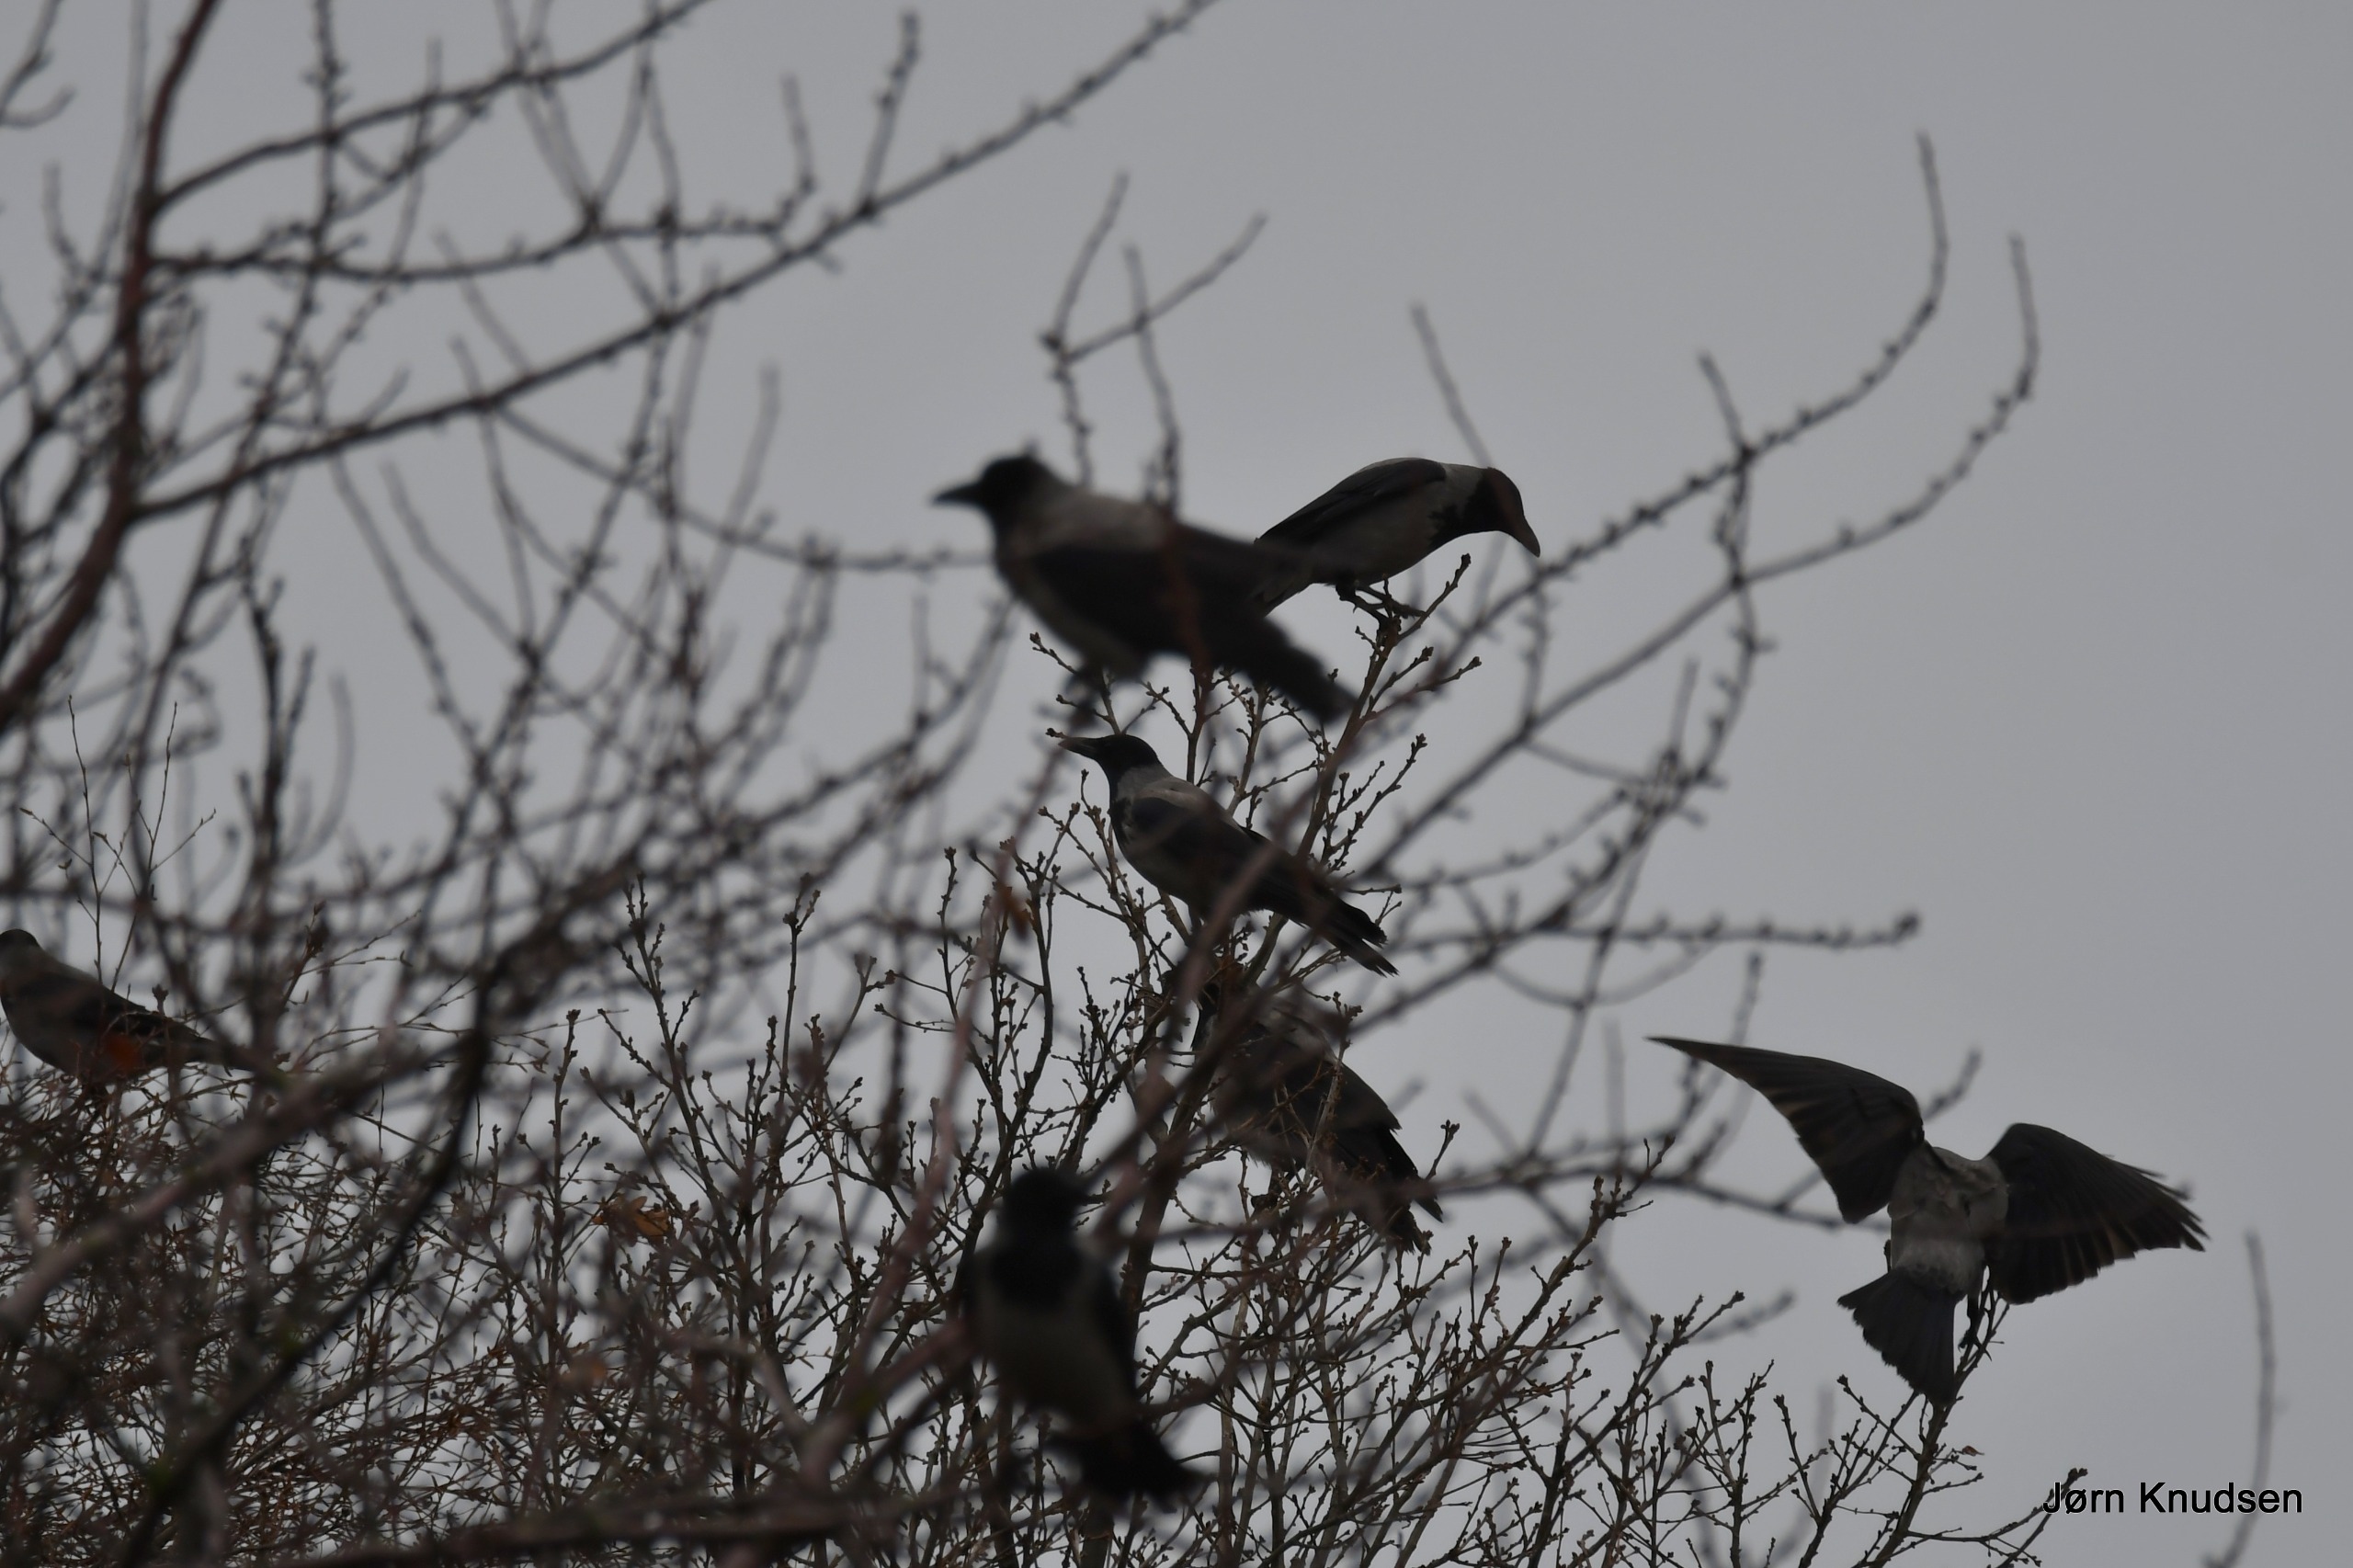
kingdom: Animalia
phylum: Chordata
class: Aves
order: Passeriformes
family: Corvidae
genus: Corvus
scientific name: Corvus cornix
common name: Gråkrage
